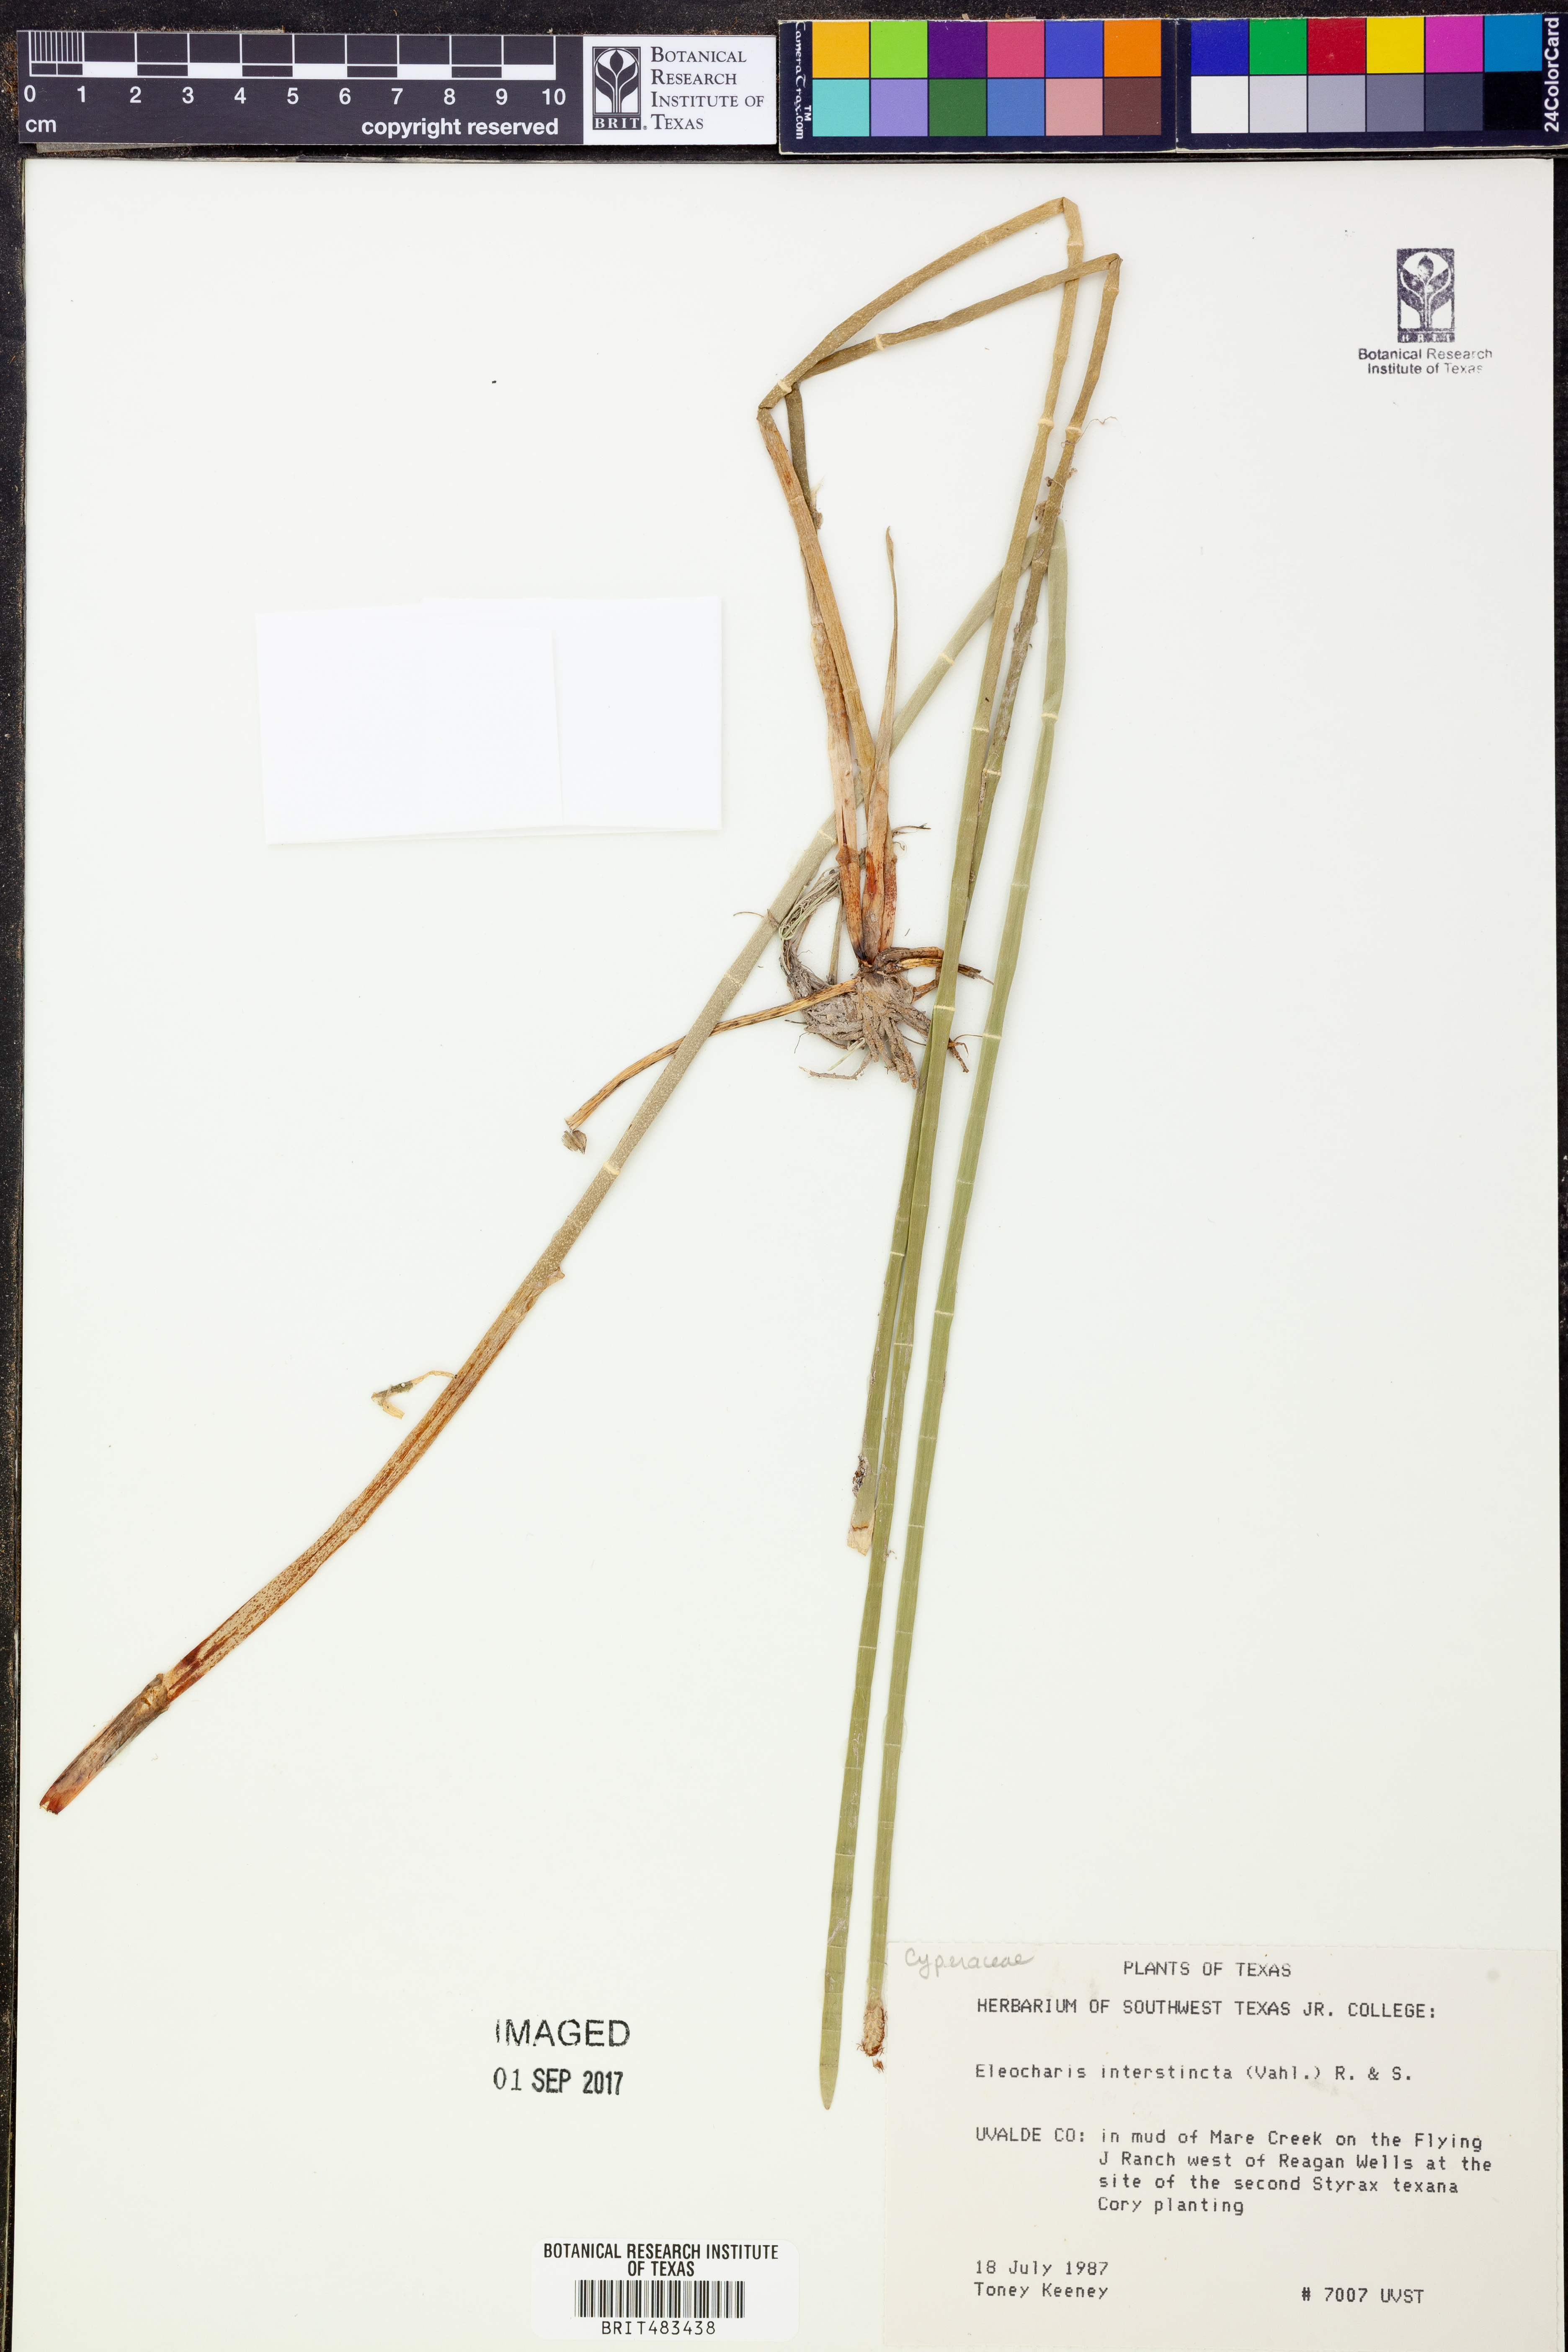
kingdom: Plantae
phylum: Tracheophyta
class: Liliopsida
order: Poales
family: Cyperaceae
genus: Eleocharis
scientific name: Eleocharis interstincta
